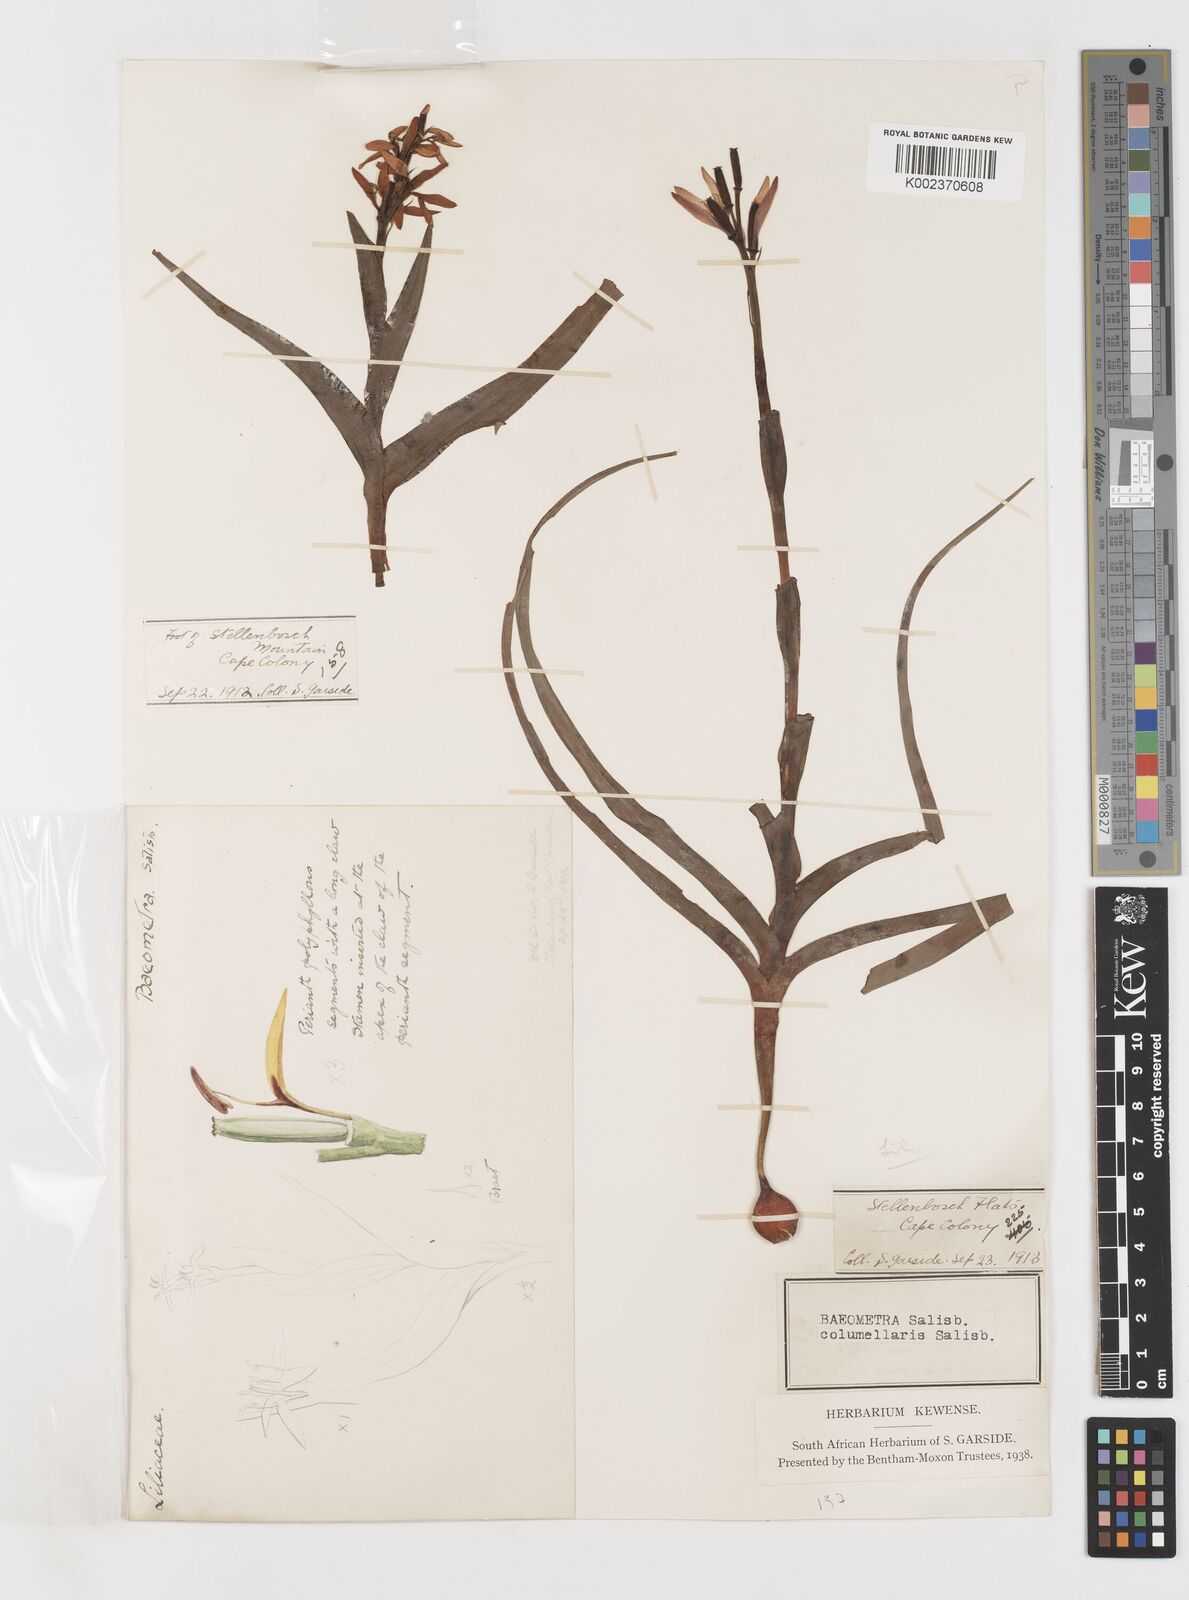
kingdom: Plantae
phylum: Tracheophyta
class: Liliopsida
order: Liliales
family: Colchicaceae
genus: Baeometra
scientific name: Baeometra uniflora
